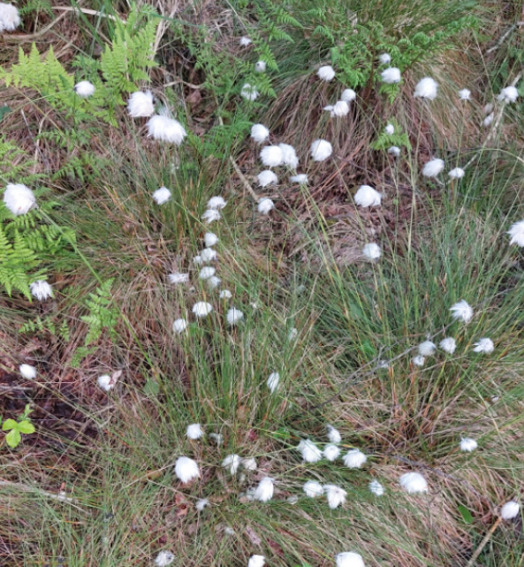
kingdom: Plantae
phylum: Tracheophyta
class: Liliopsida
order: Poales
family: Cyperaceae
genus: Eriophorum
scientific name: Eriophorum vaginatum
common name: Tue-kæruld
